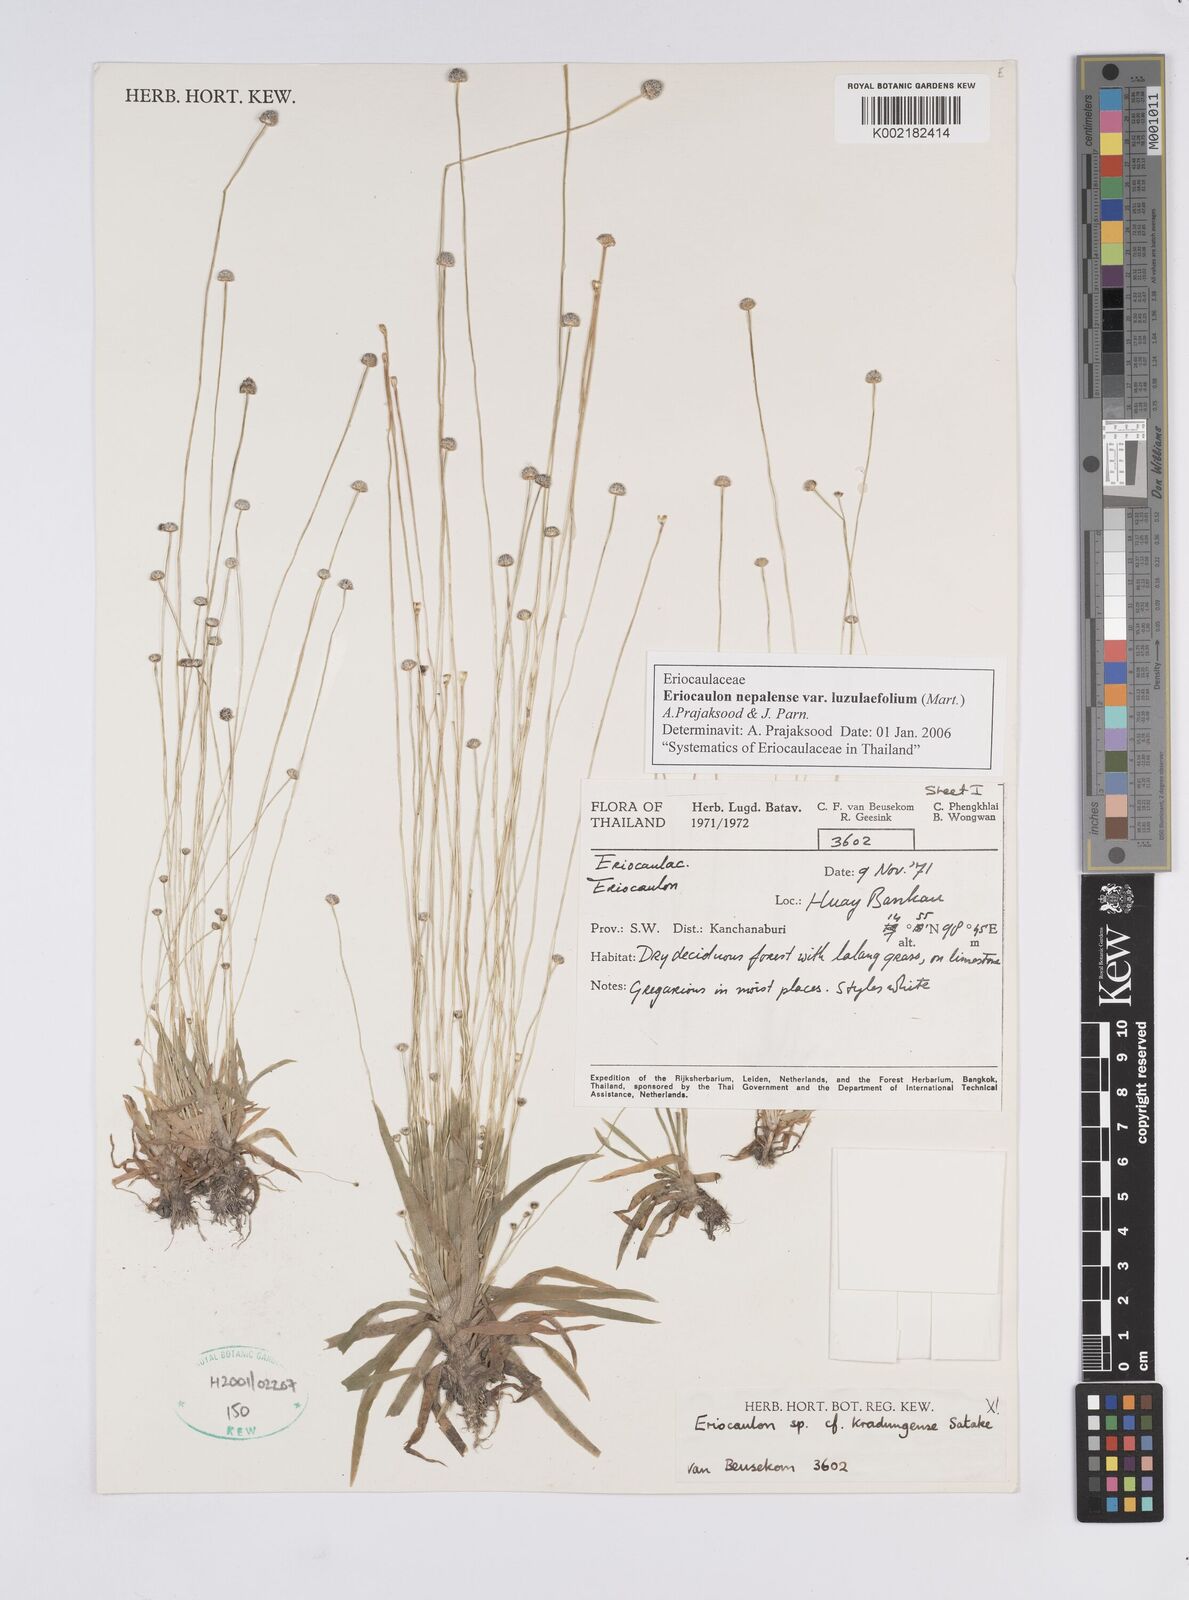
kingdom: Plantae
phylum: Tracheophyta
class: Liliopsida
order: Poales
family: Eriocaulaceae
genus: Eriocaulon
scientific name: Eriocaulon nepalense
